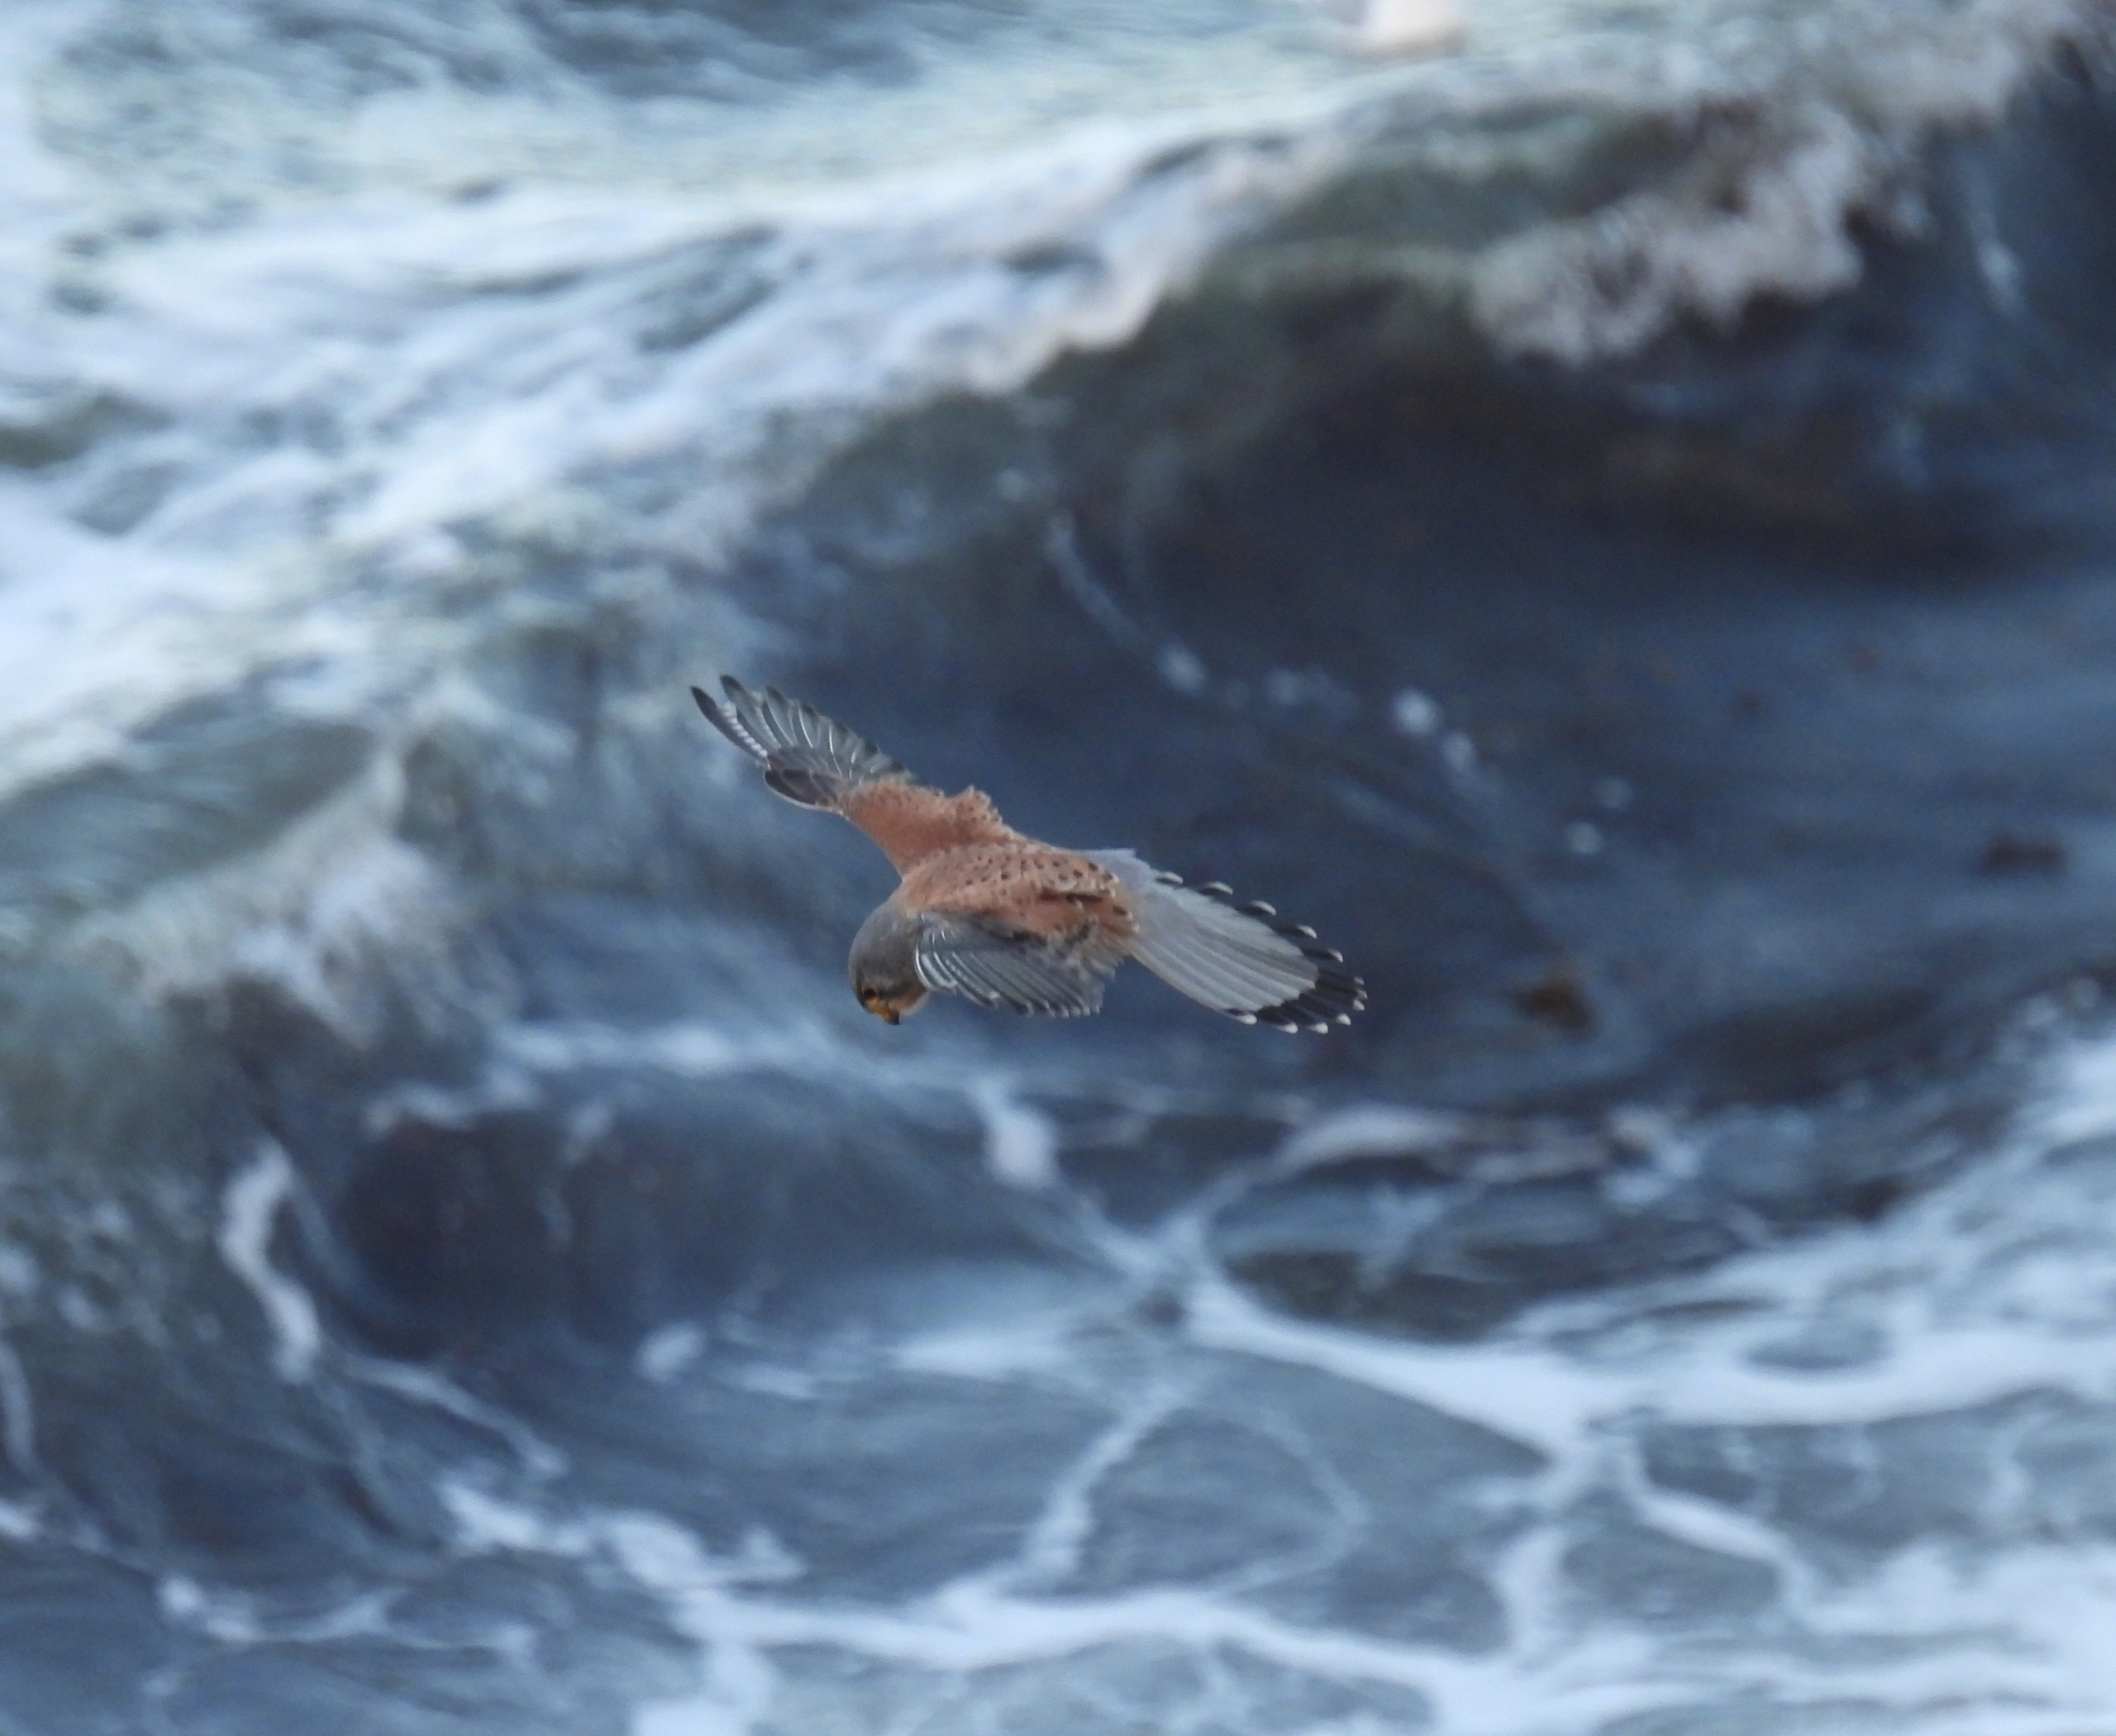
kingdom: Animalia
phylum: Chordata
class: Aves
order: Falconiformes
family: Falconidae
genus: Falco
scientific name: Falco tinnunculus
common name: Tårnfalk
